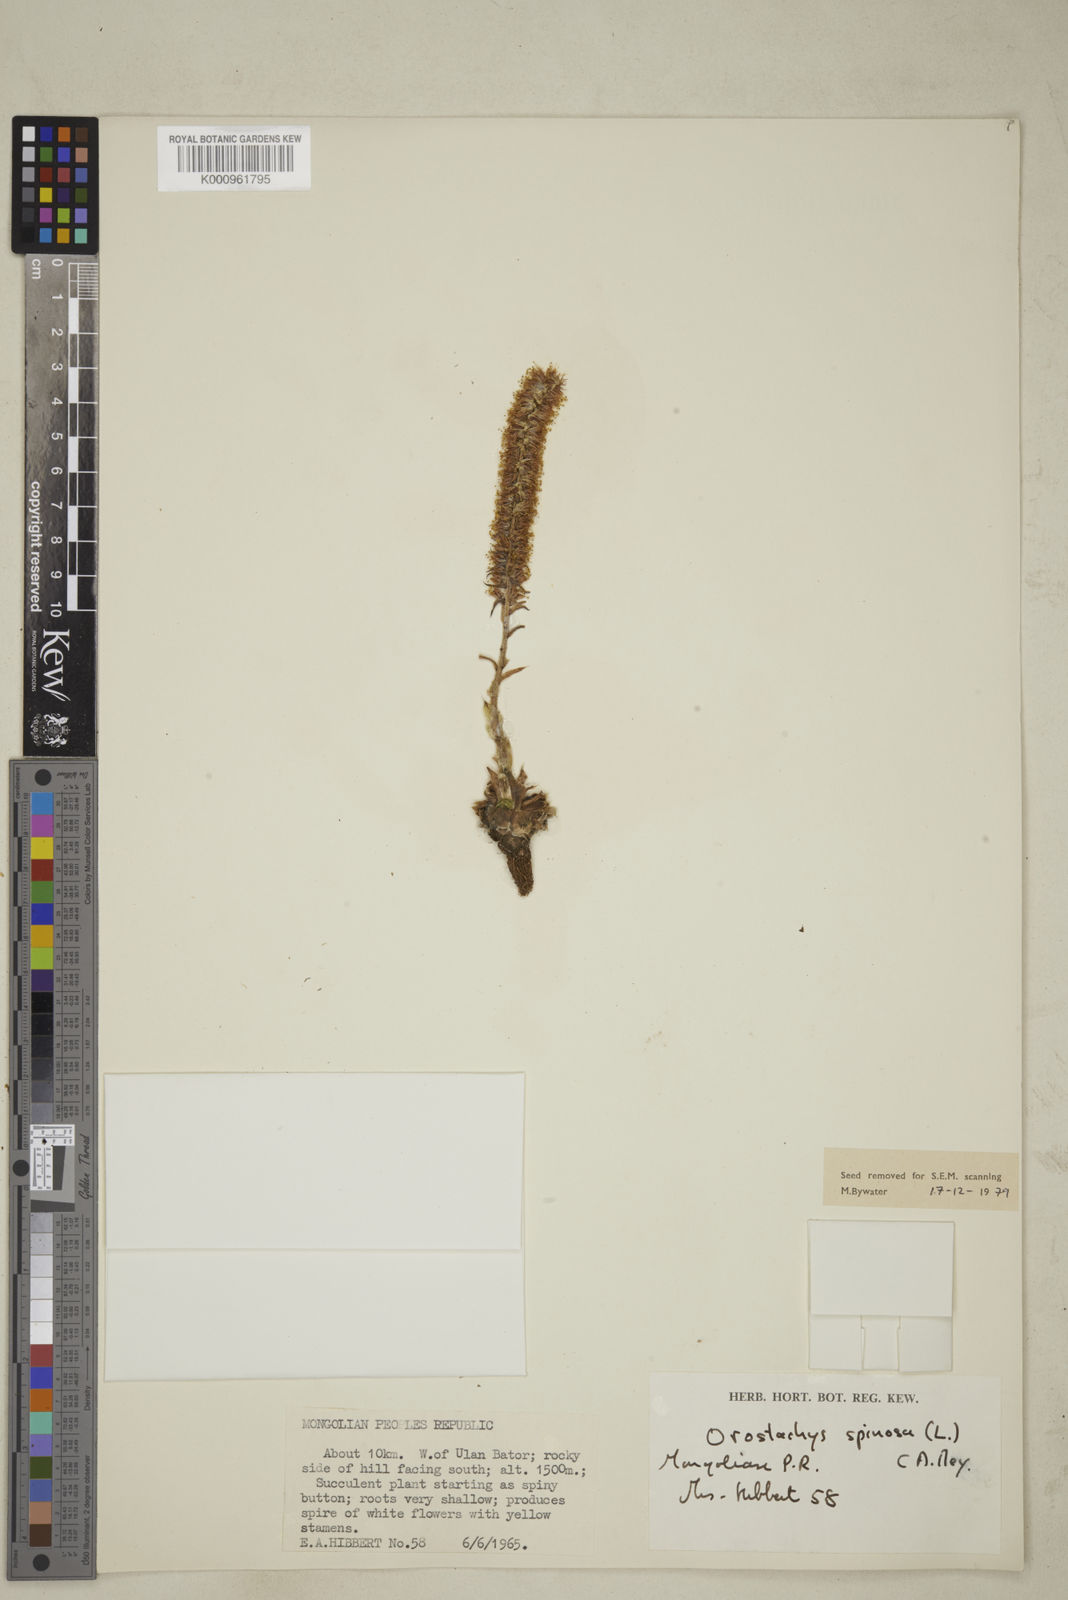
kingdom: Plantae
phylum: Tracheophyta
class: Magnoliopsida
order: Saxifragales
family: Crassulaceae
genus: Orostachys
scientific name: Orostachys spinosa
